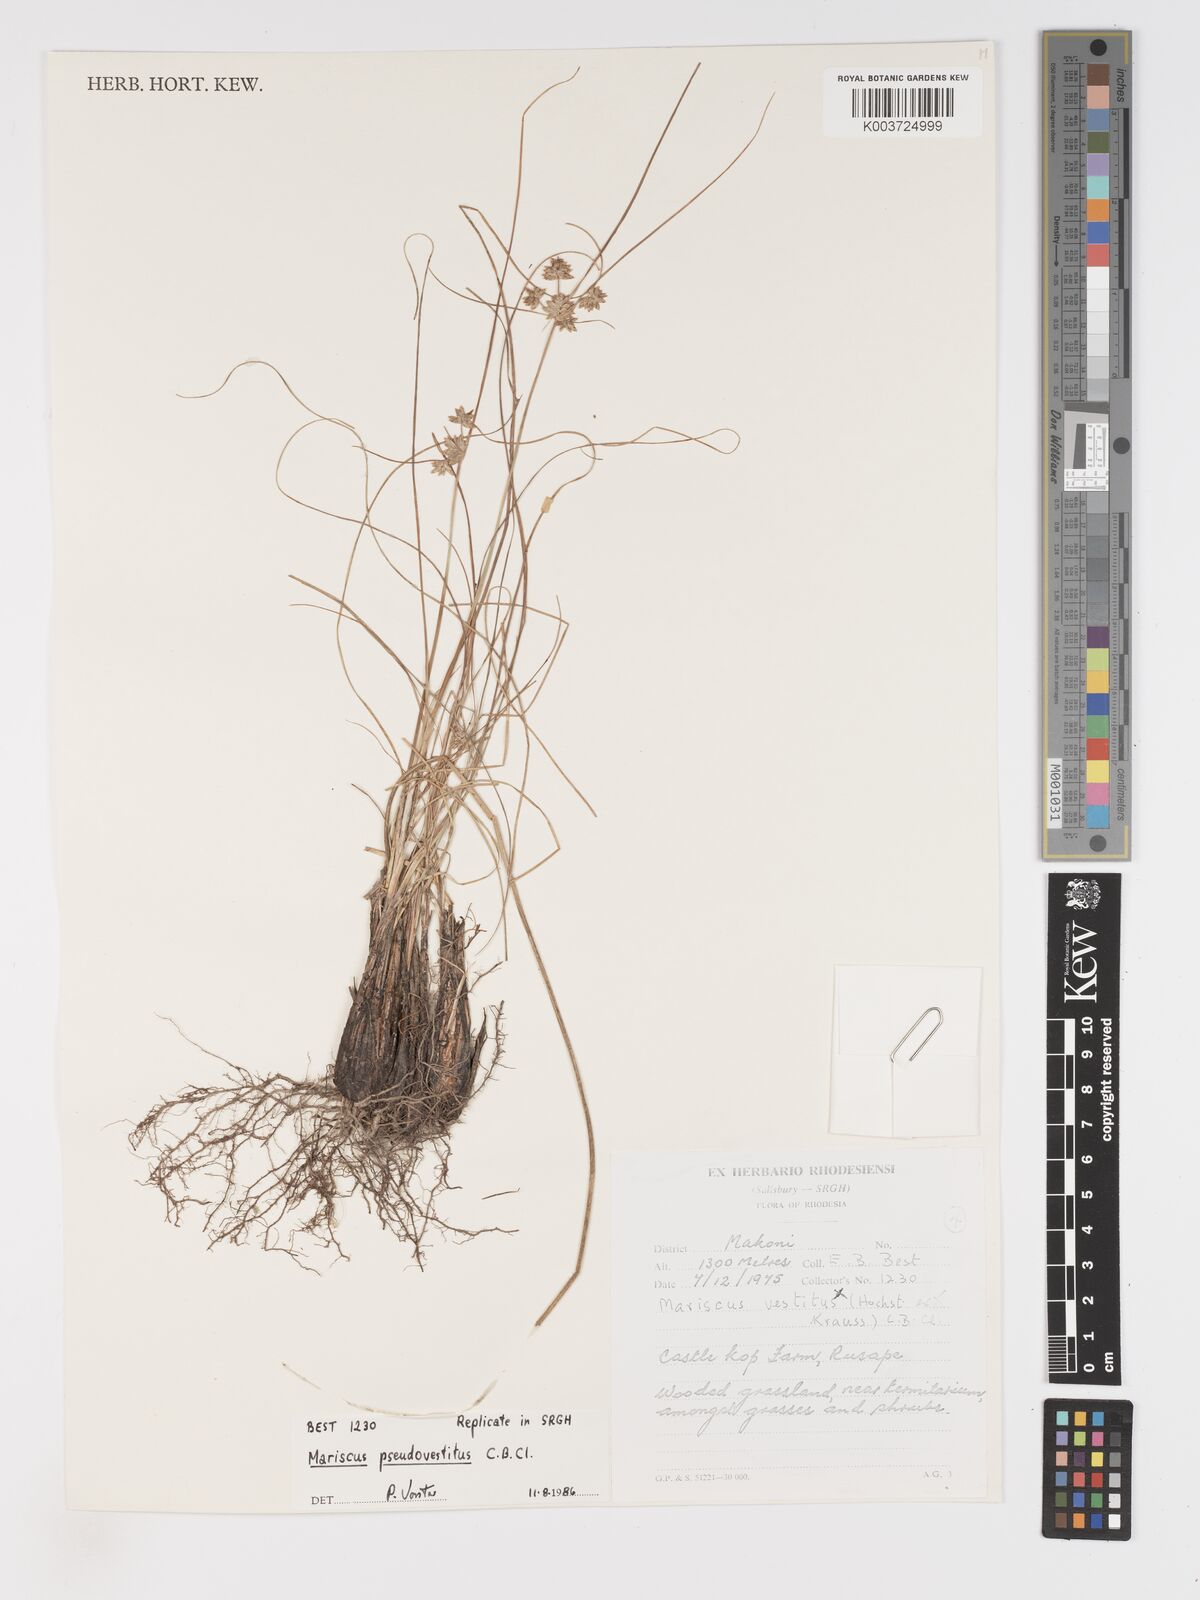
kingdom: Plantae
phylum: Tracheophyta
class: Liliopsida
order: Poales
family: Cyperaceae
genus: Cyperus
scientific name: Cyperus pseudovestitus
